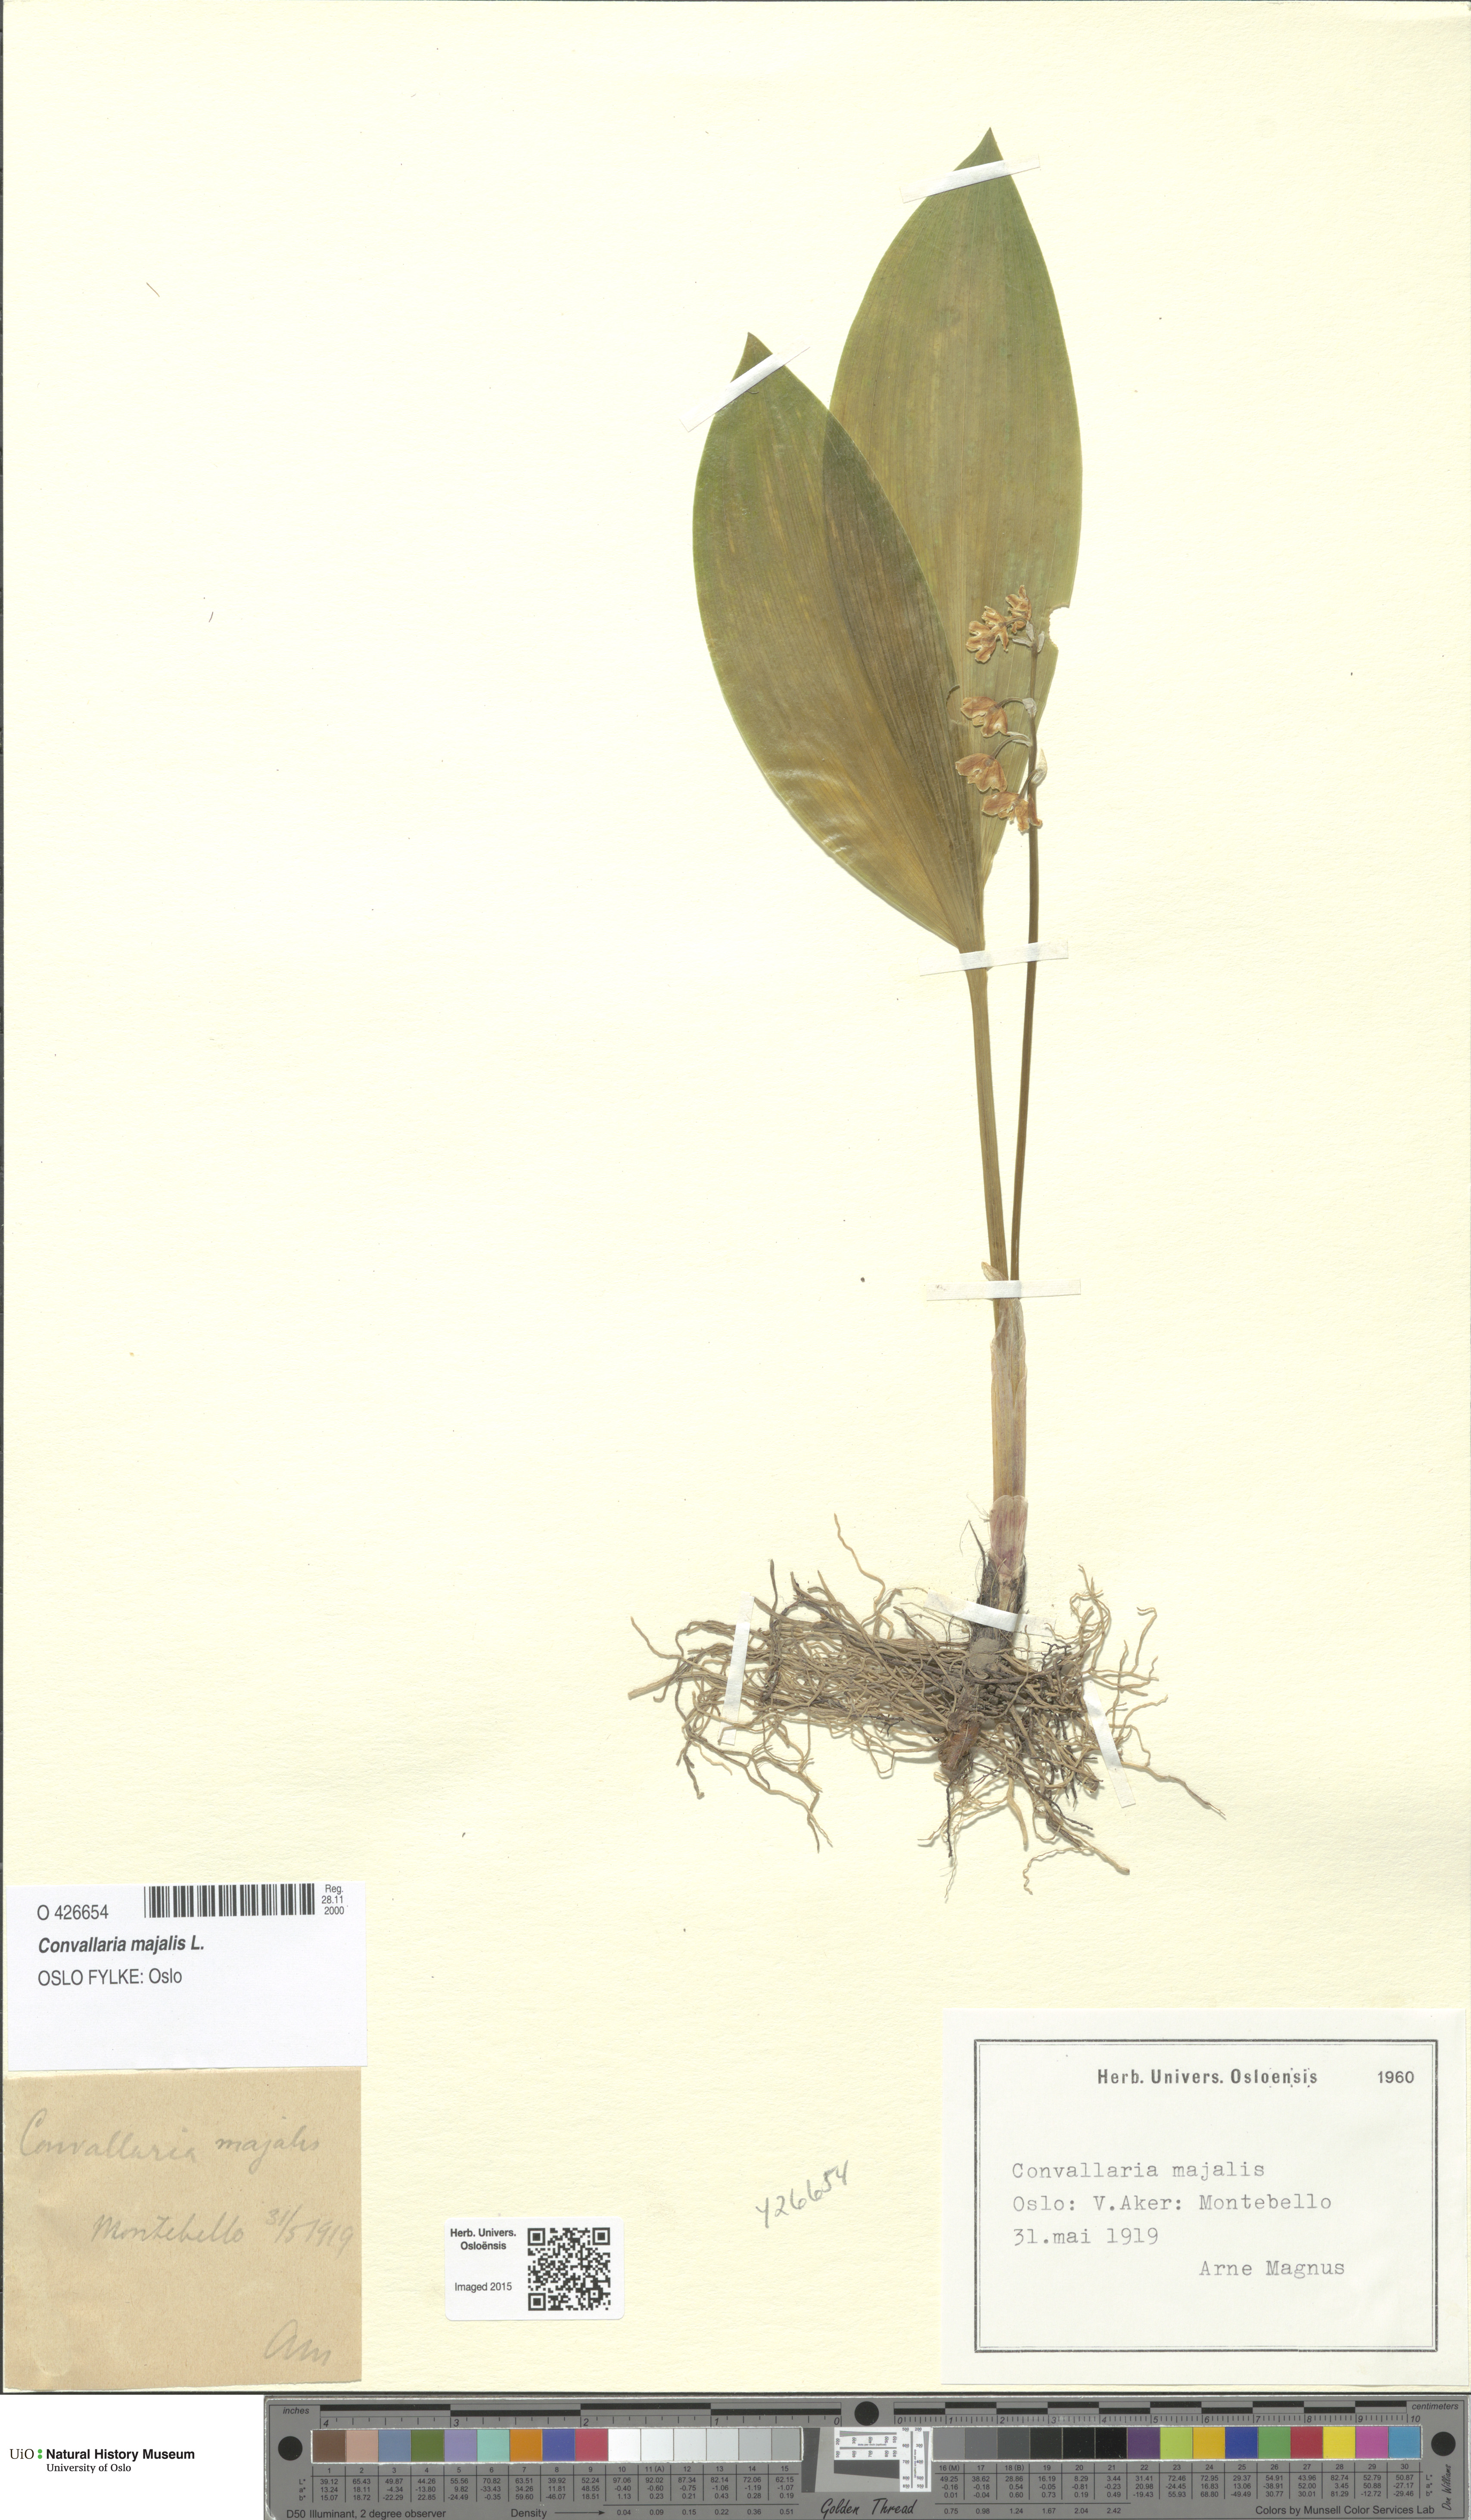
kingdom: Plantae
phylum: Tracheophyta
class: Liliopsida
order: Asparagales
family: Asparagaceae
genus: Convallaria
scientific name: Convallaria majalis
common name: Lily-of-the-valley
